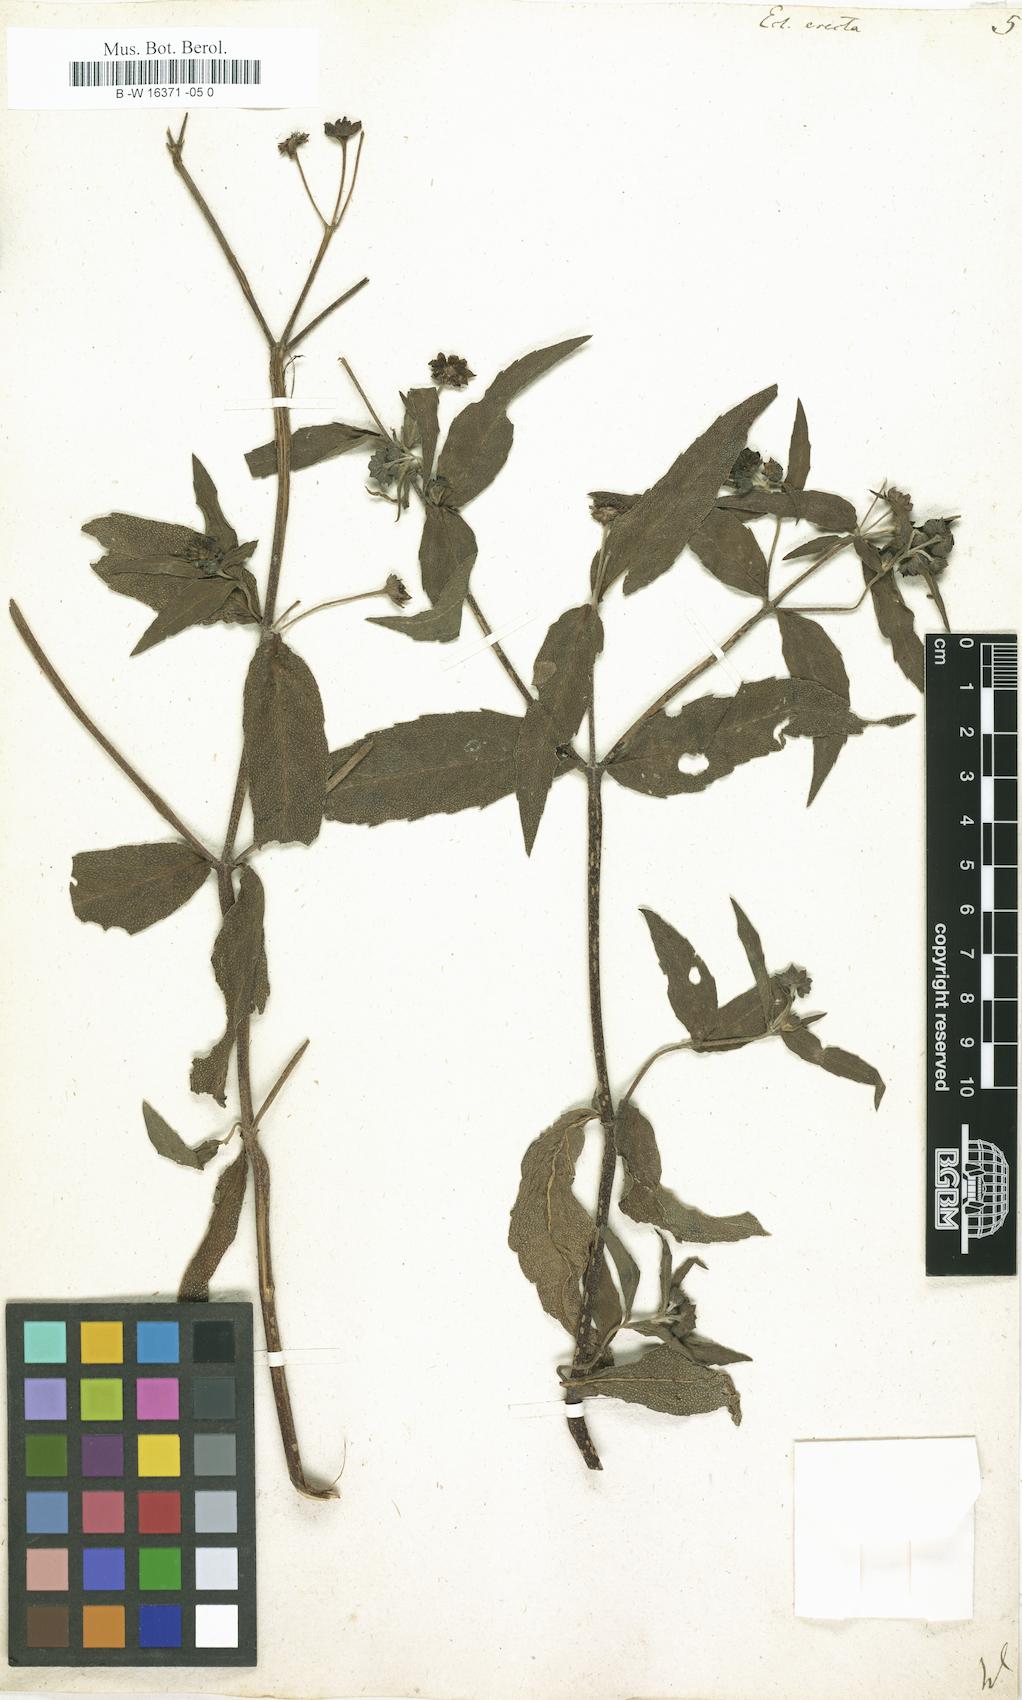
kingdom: Plantae
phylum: Tracheophyta
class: Magnoliopsida
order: Asterales
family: Asteraceae
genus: Eclipta
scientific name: Eclipta alba
